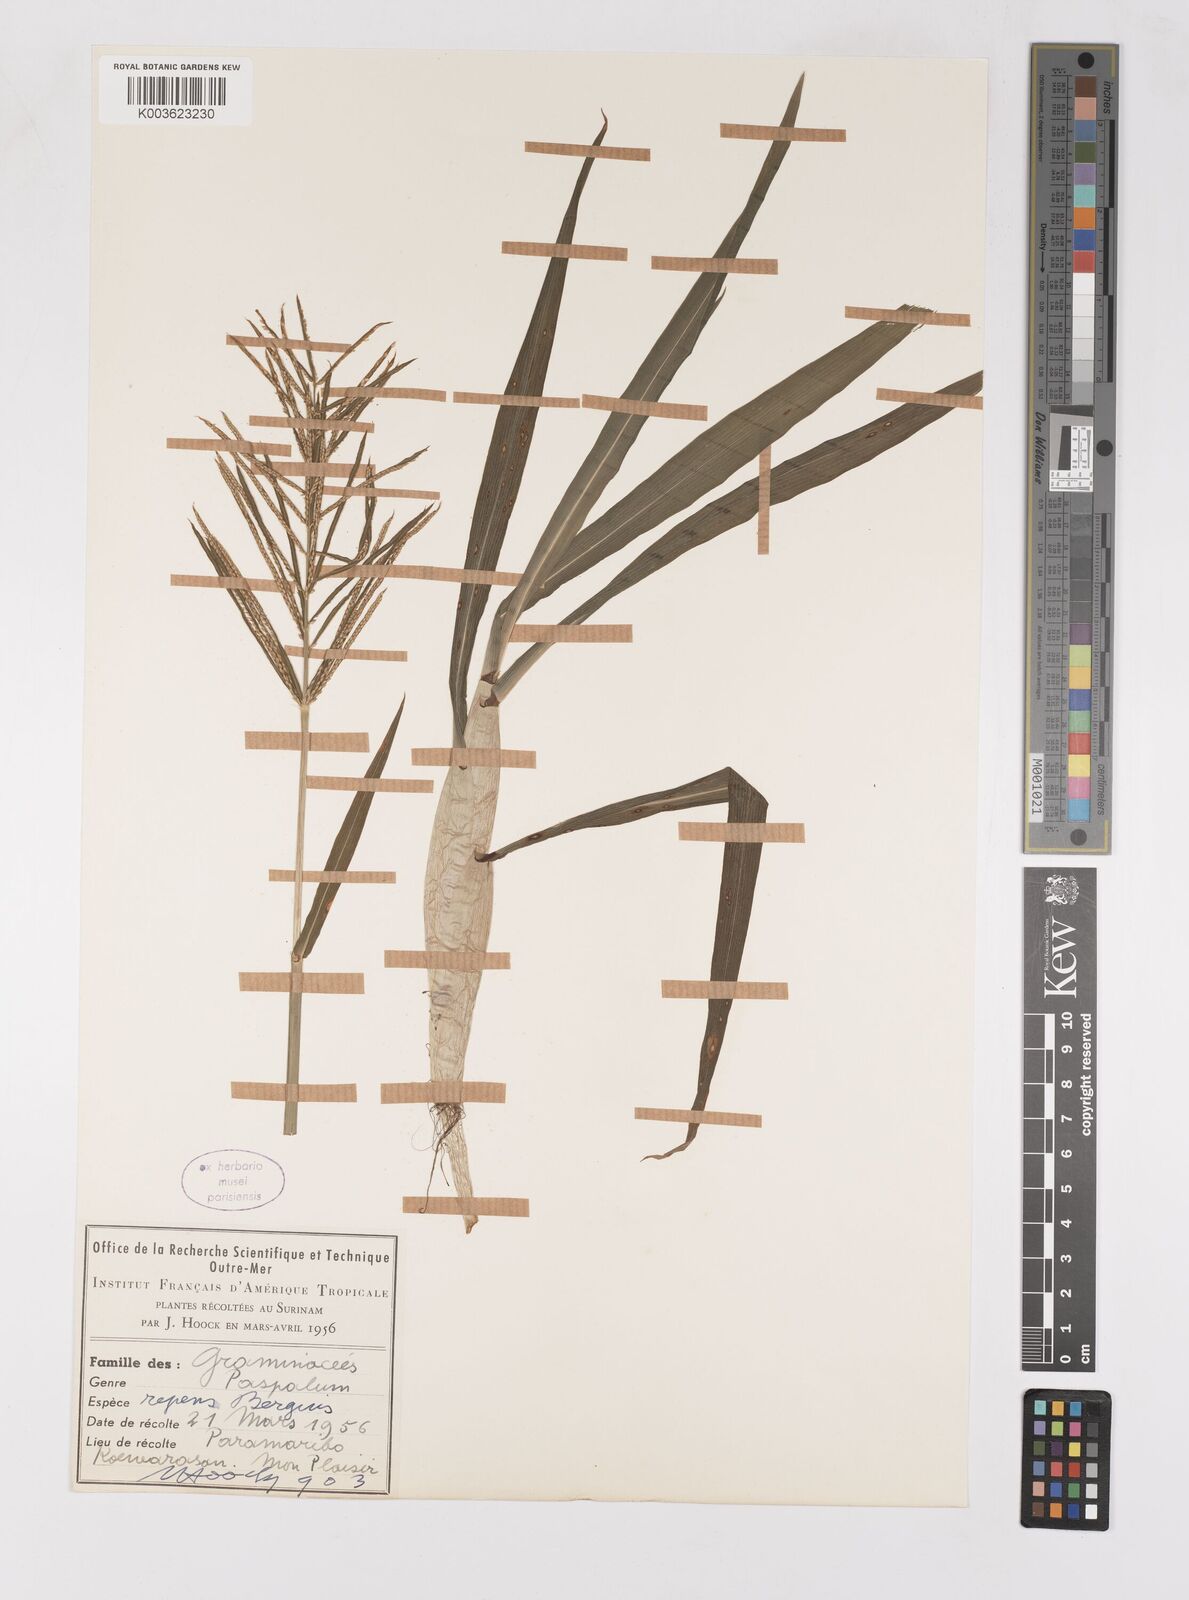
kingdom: Plantae
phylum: Tracheophyta
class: Liliopsida
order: Poales
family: Poaceae
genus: Paspalum
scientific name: Paspalum repens
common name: Water paspalum
